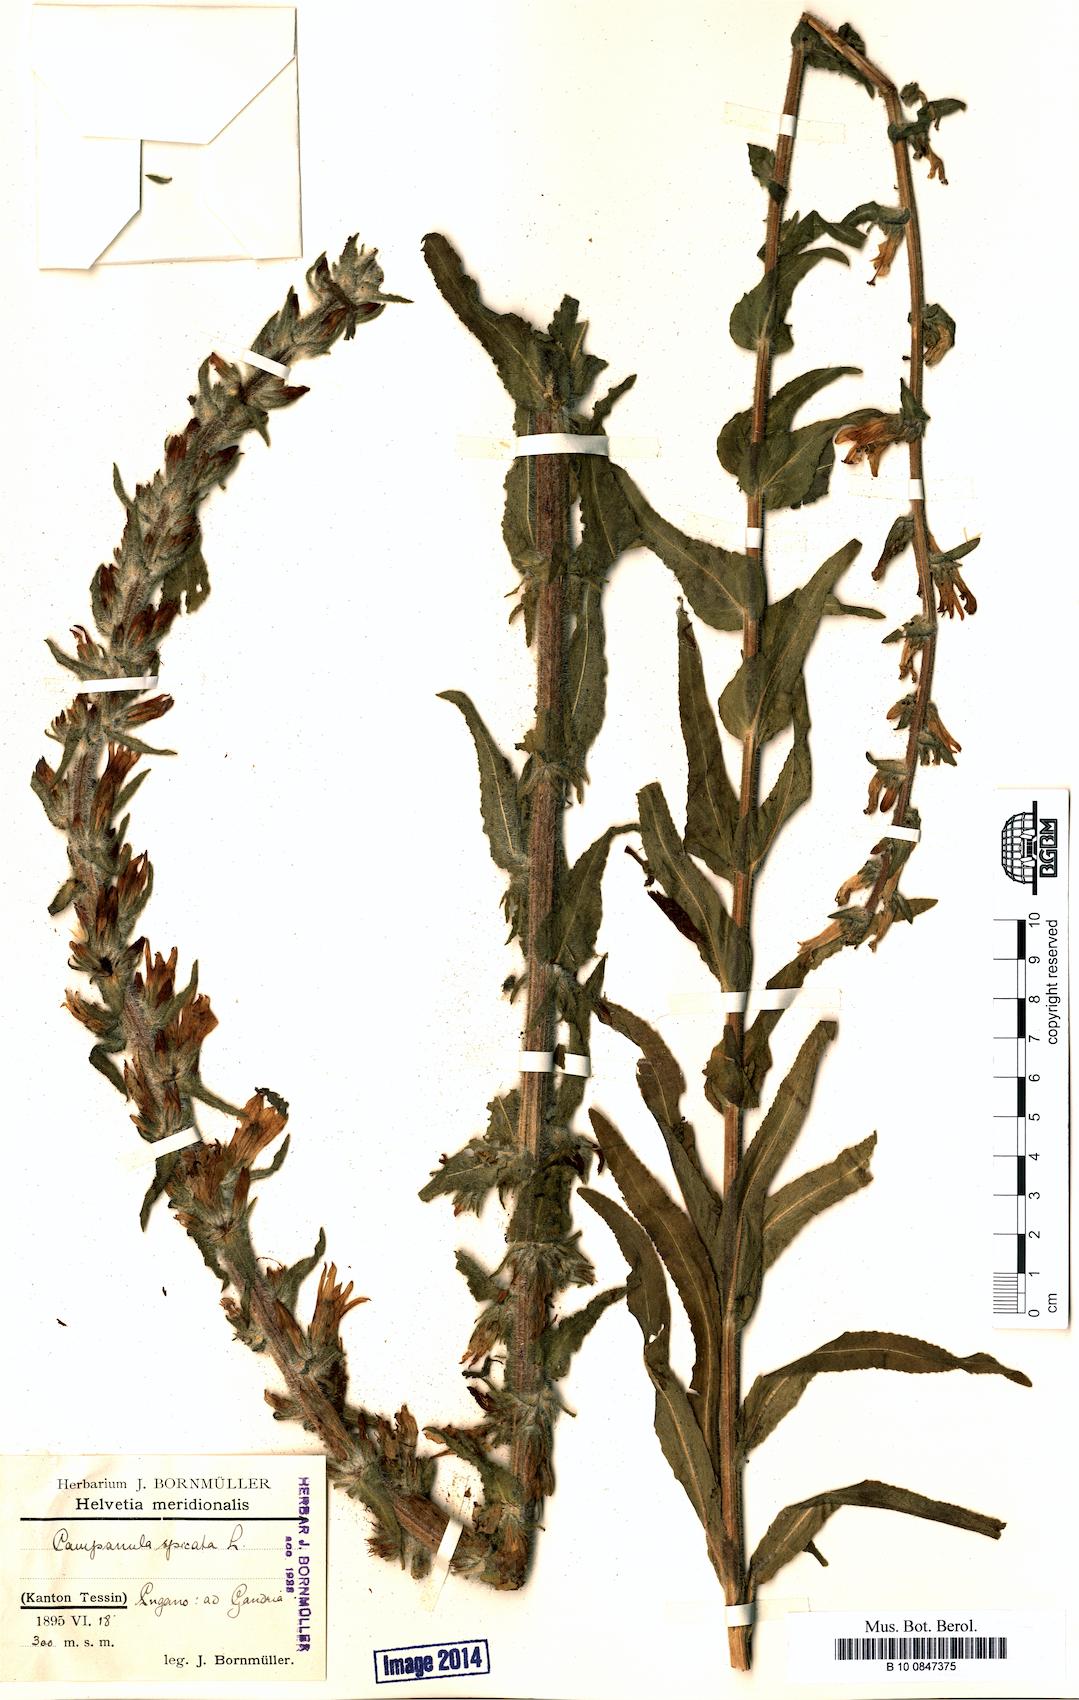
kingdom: Plantae
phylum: Tracheophyta
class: Magnoliopsida
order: Asterales
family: Campanulaceae
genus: Campanula
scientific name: Campanula spicata
